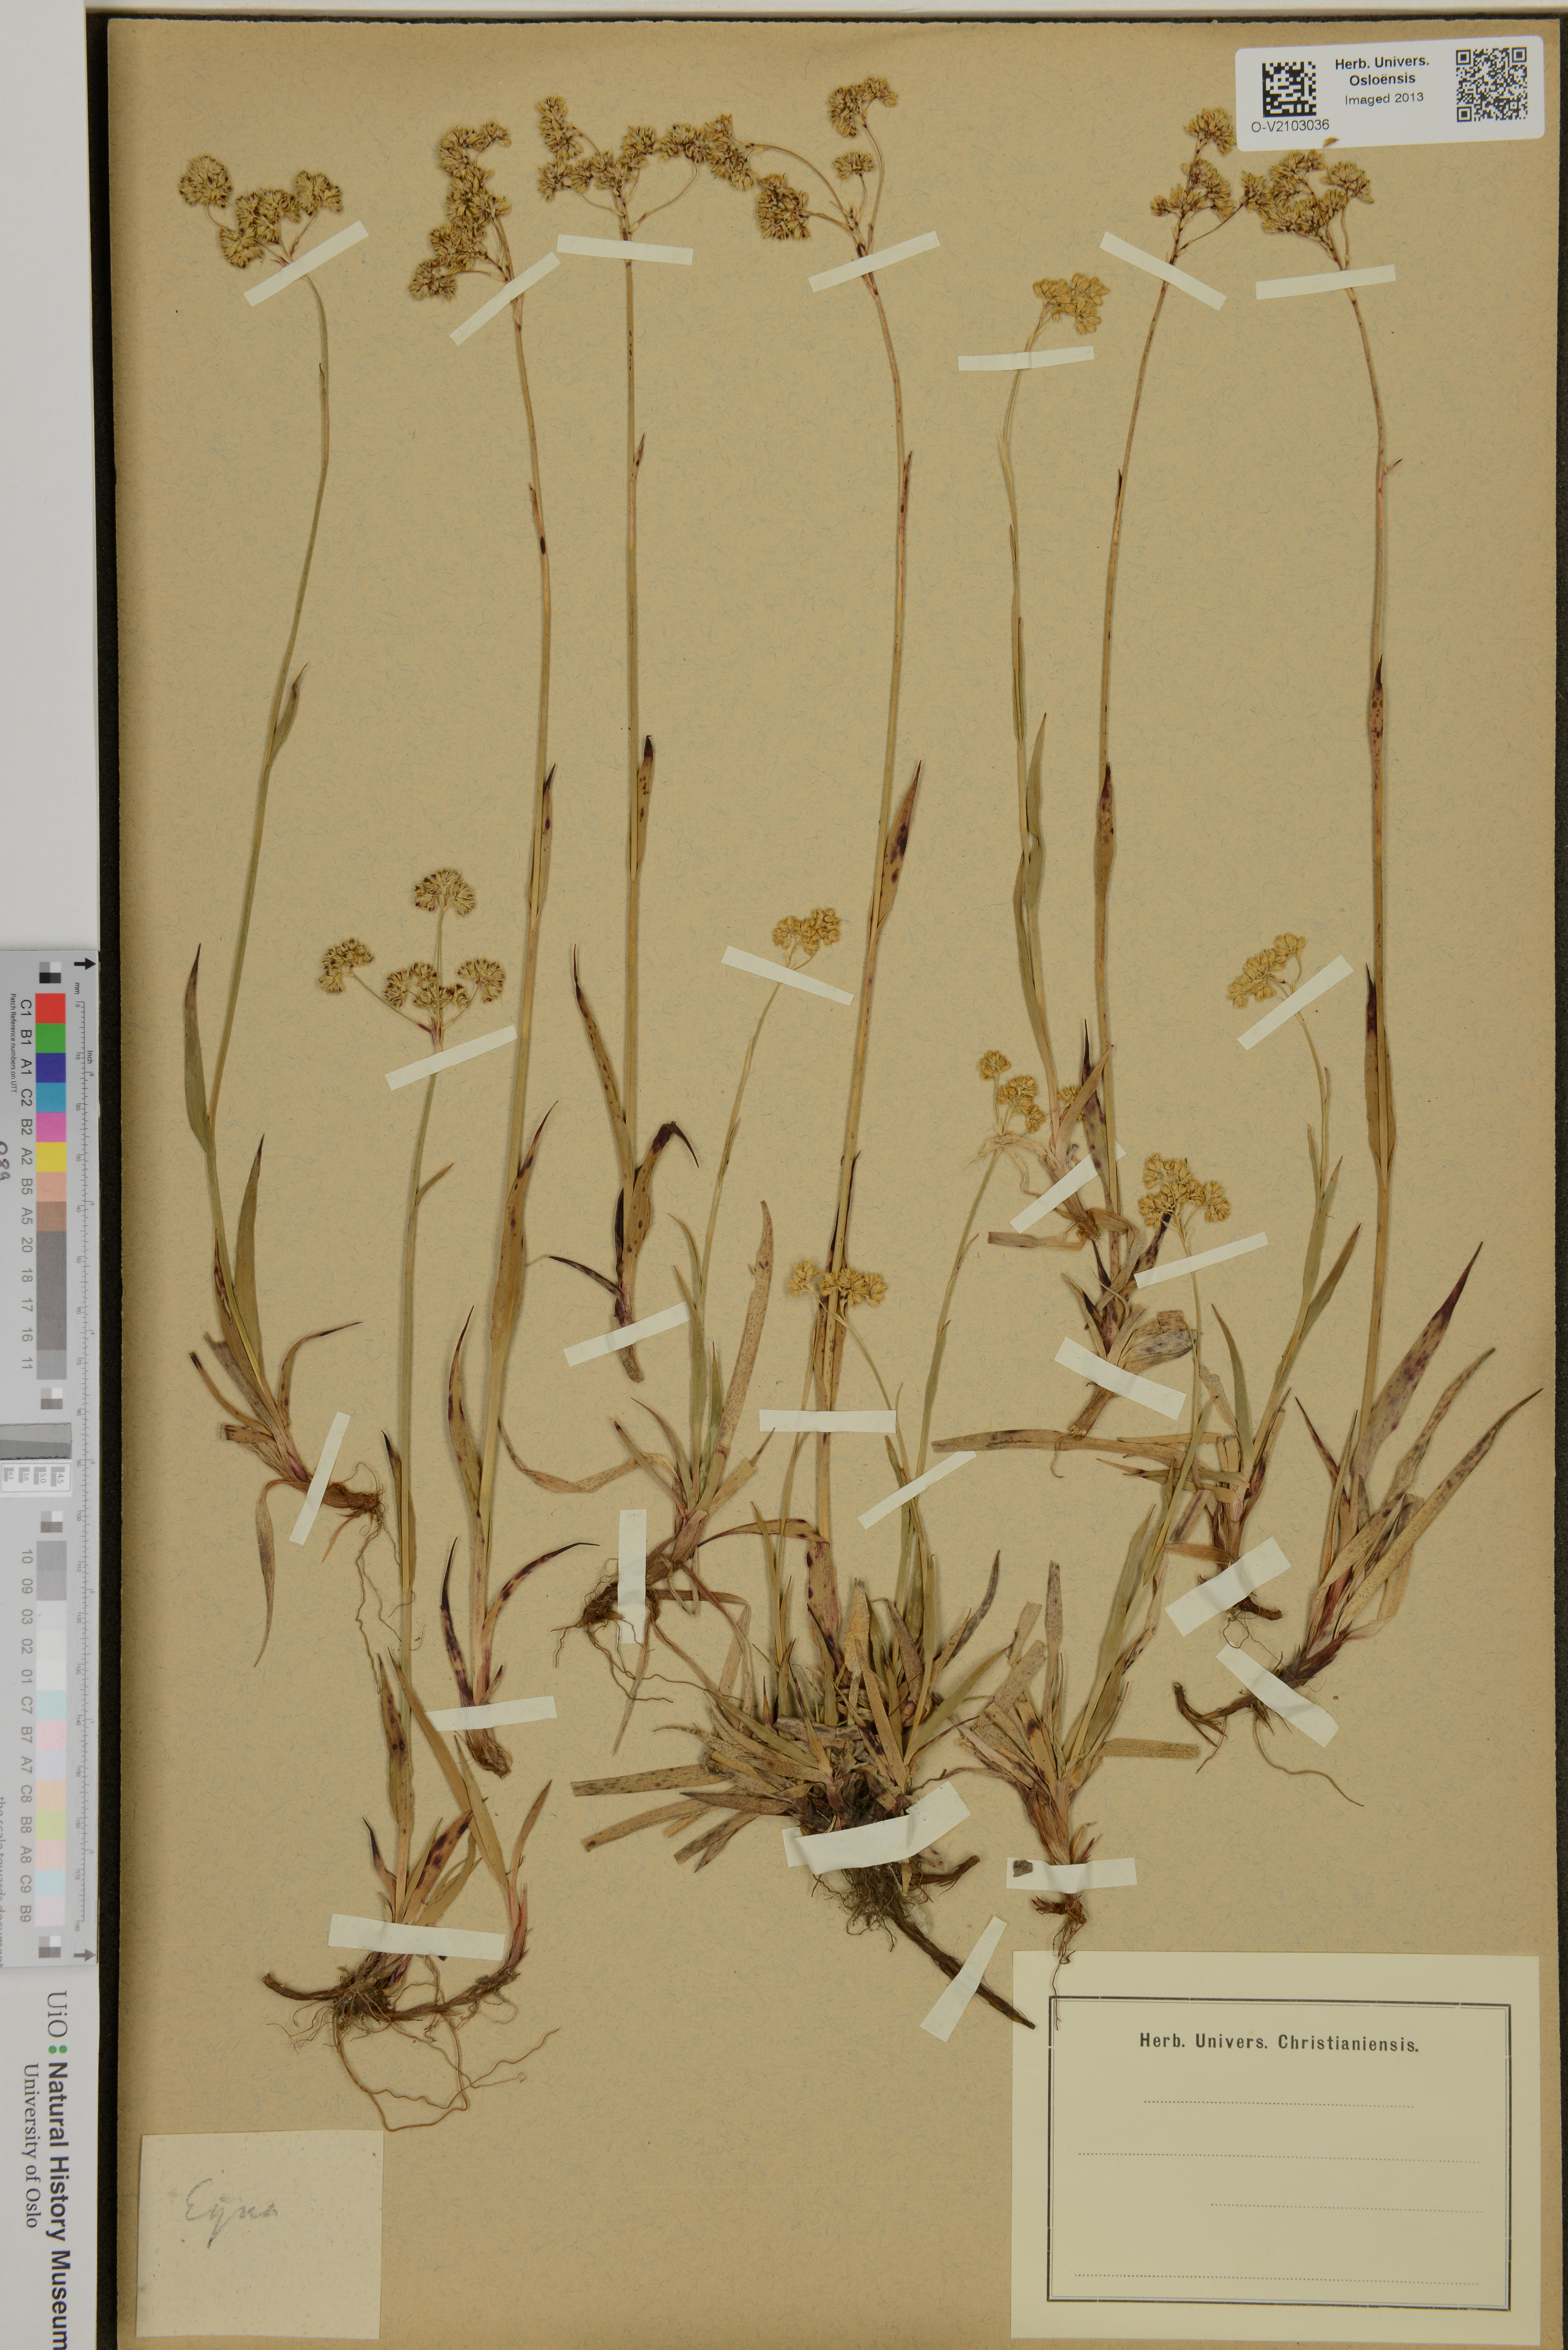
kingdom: Plantae
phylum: Tracheophyta
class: Liliopsida
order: Poales
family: Juncaceae
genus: Luzula
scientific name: Luzula
